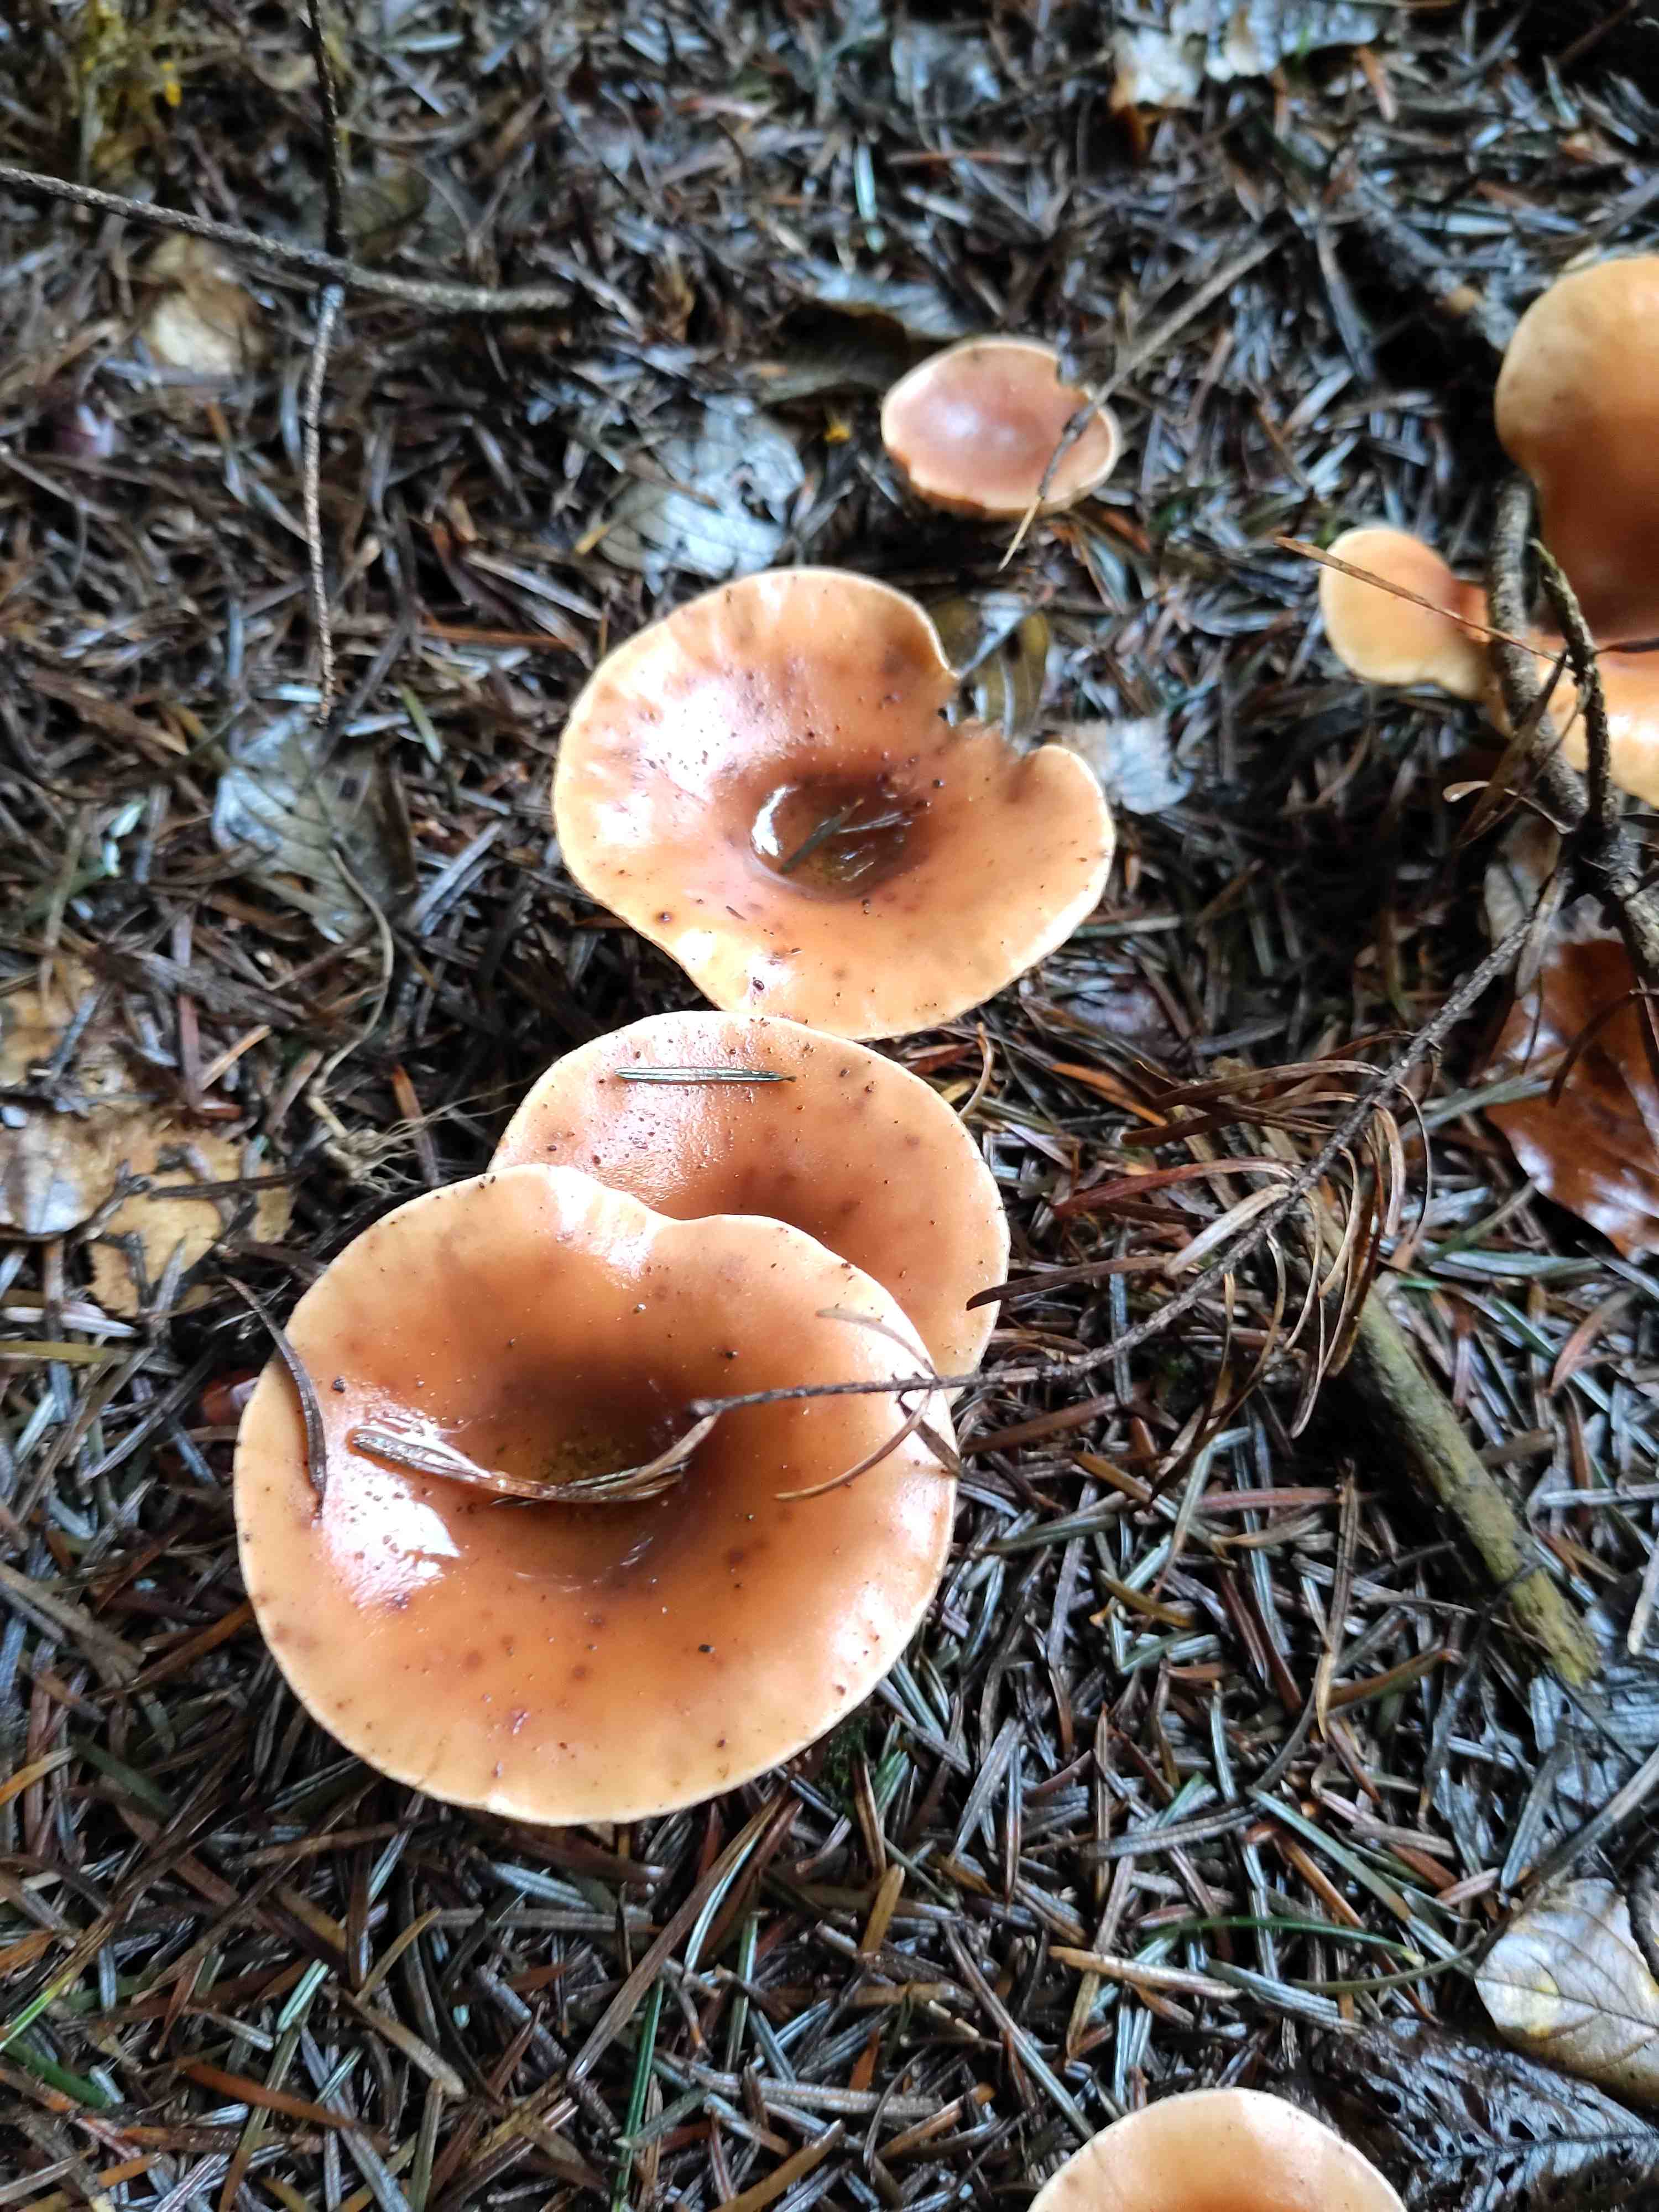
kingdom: Fungi
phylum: Basidiomycota
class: Agaricomycetes
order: Agaricales
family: Tricholomataceae
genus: Paralepista
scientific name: Paralepista flaccida
